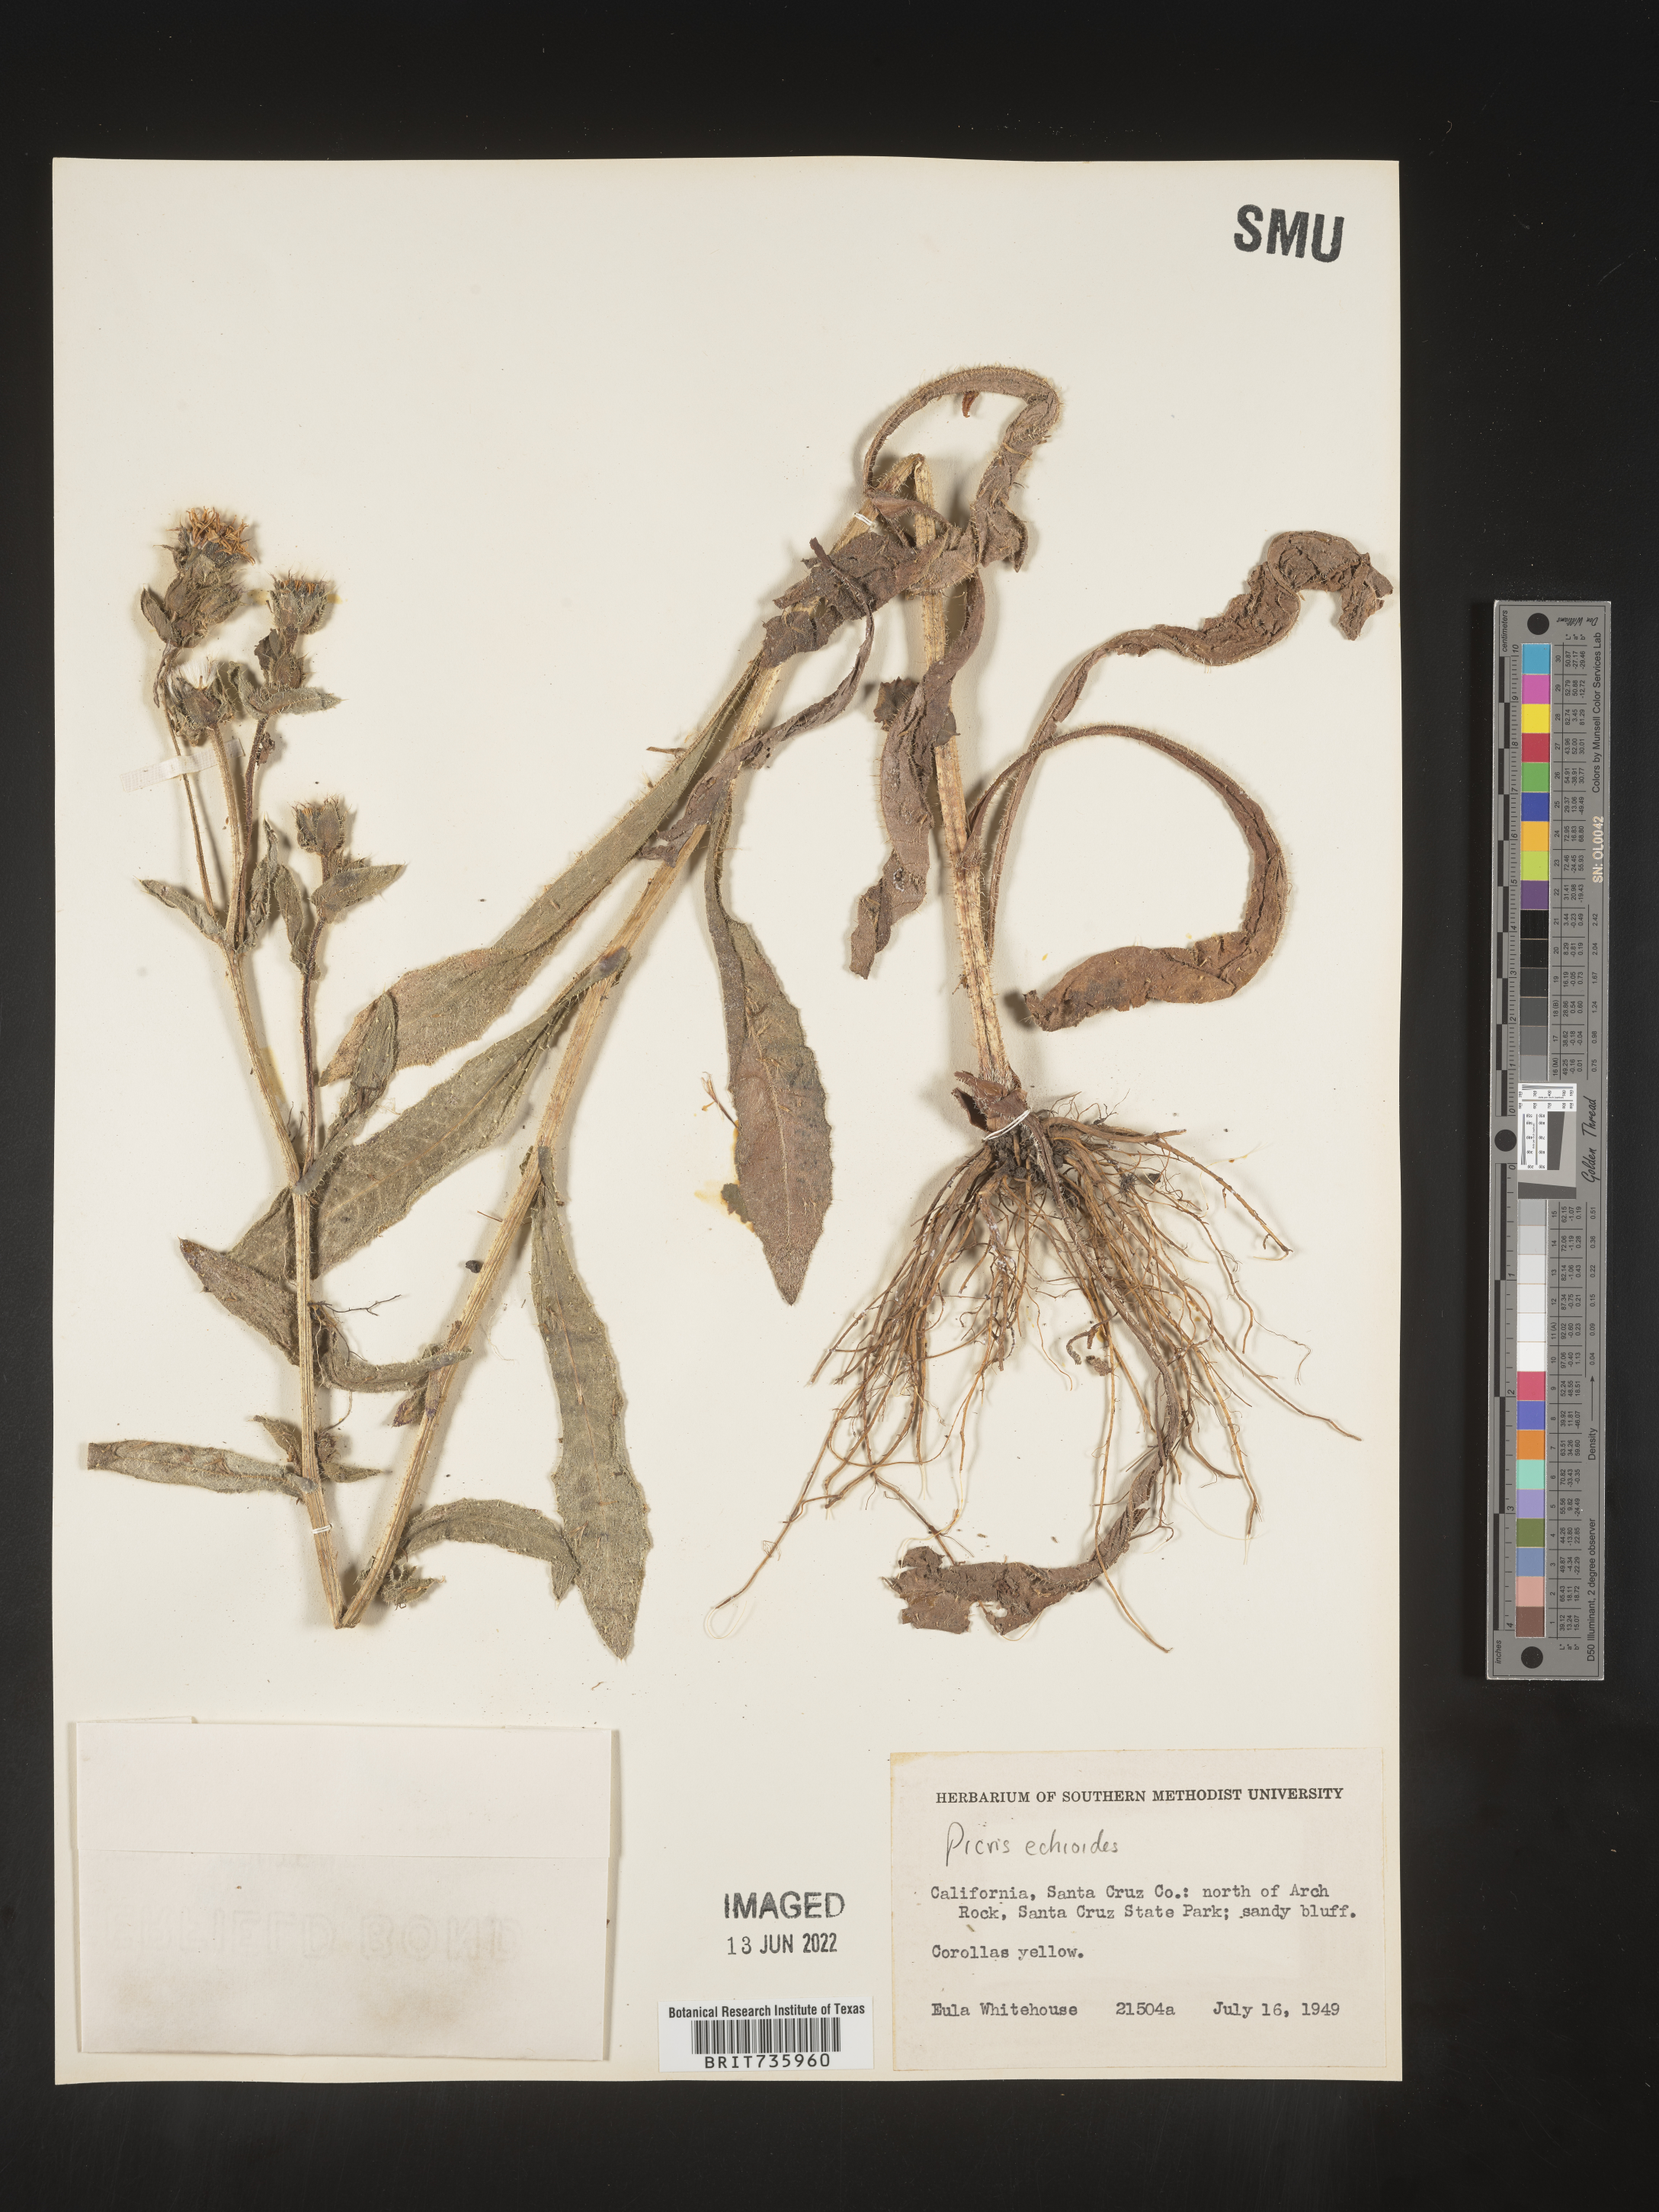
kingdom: Plantae
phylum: Tracheophyta
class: Magnoliopsida
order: Asterales
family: Asteraceae
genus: Picris
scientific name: Picris
